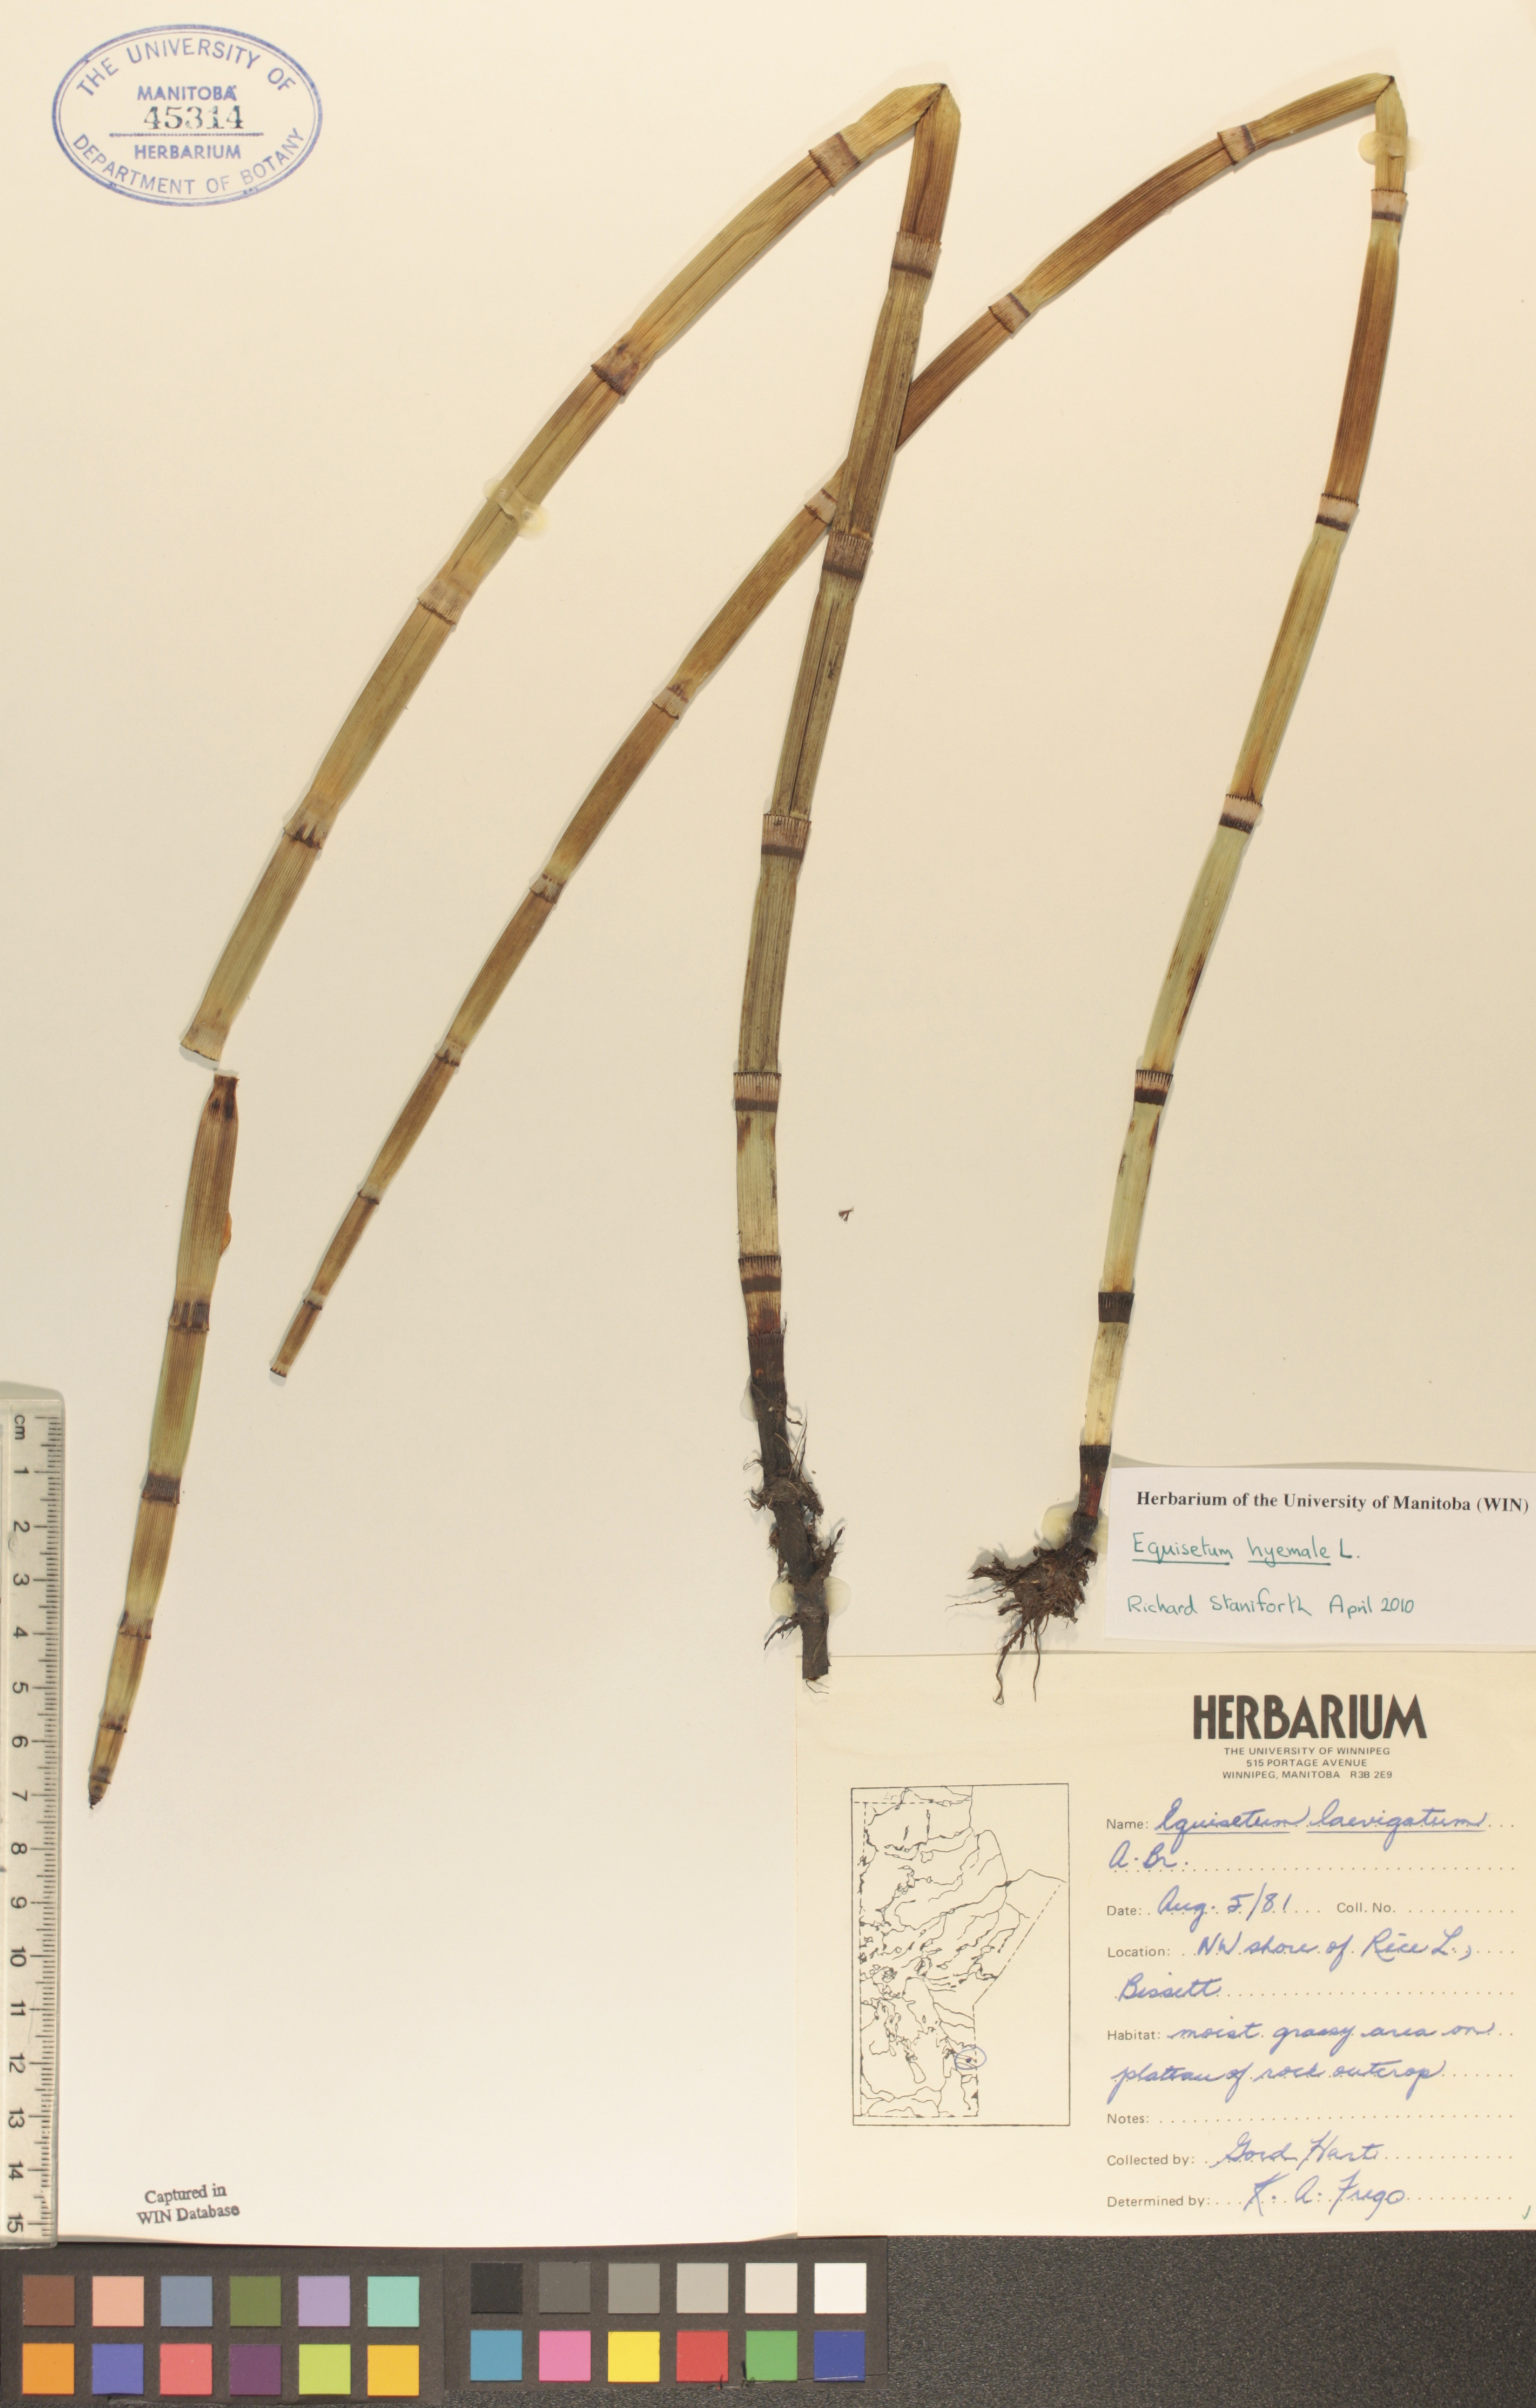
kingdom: Plantae
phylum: Tracheophyta
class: Polypodiopsida
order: Equisetales
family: Equisetaceae
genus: Equisetum
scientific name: Equisetum hyemale
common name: Rough horsetail
